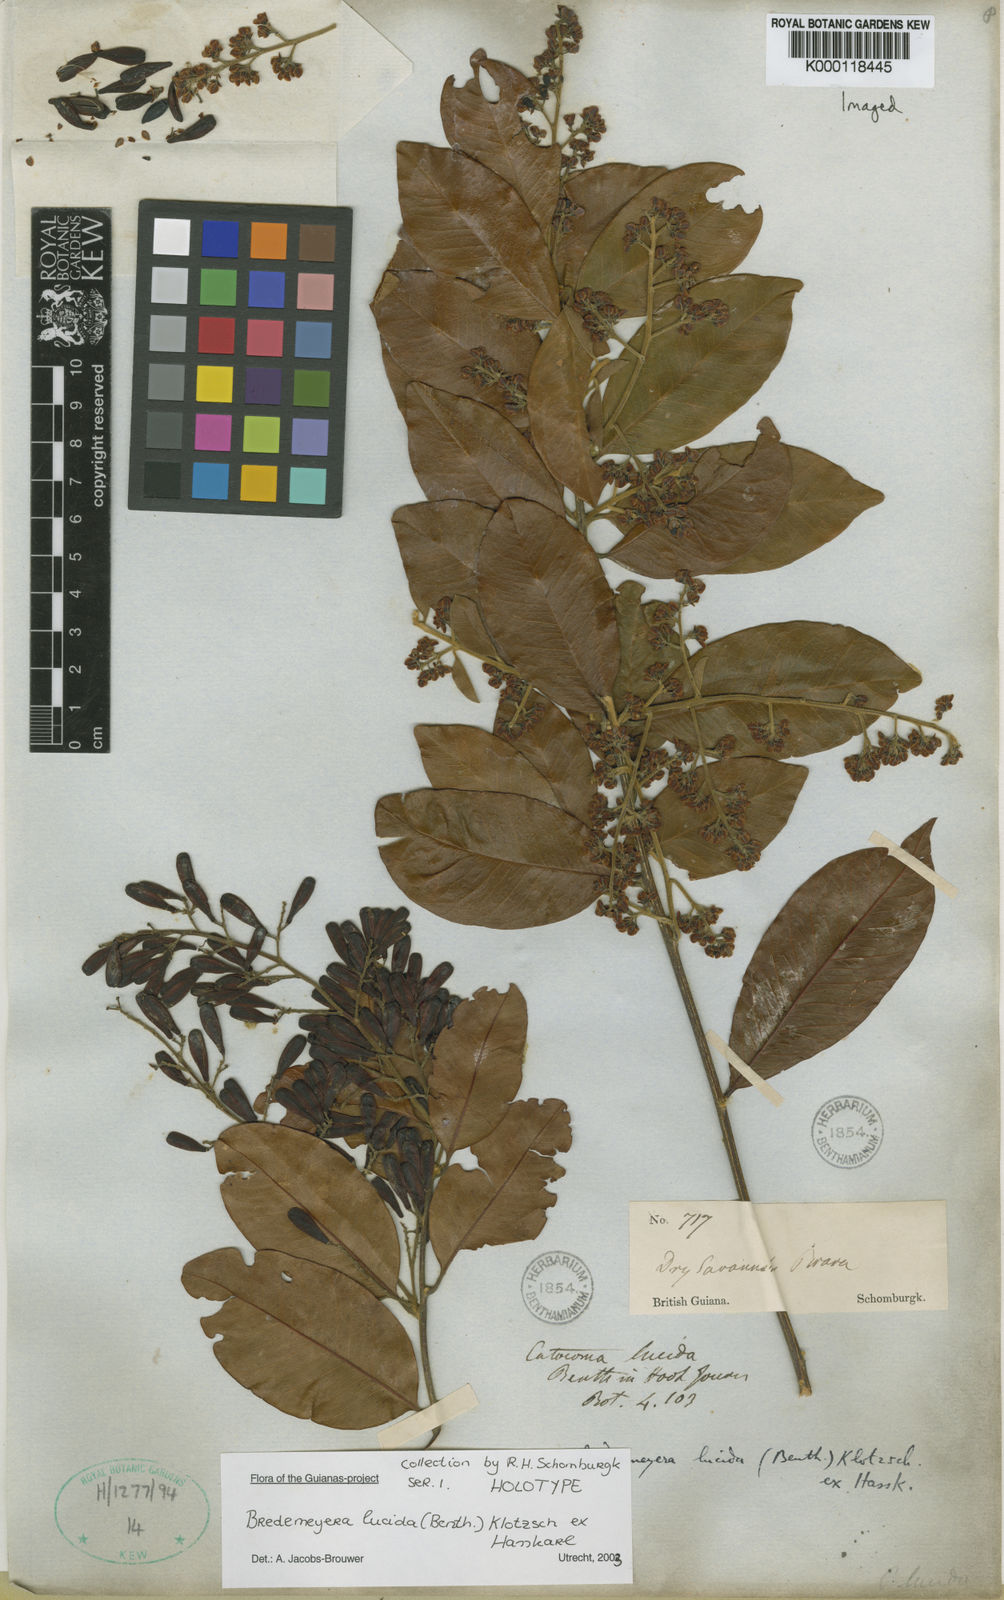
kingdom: Plantae
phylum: Tracheophyta
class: Magnoliopsida
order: Fabales
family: Polygalaceae
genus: Bredemeyera
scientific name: Bredemeyera lucida
